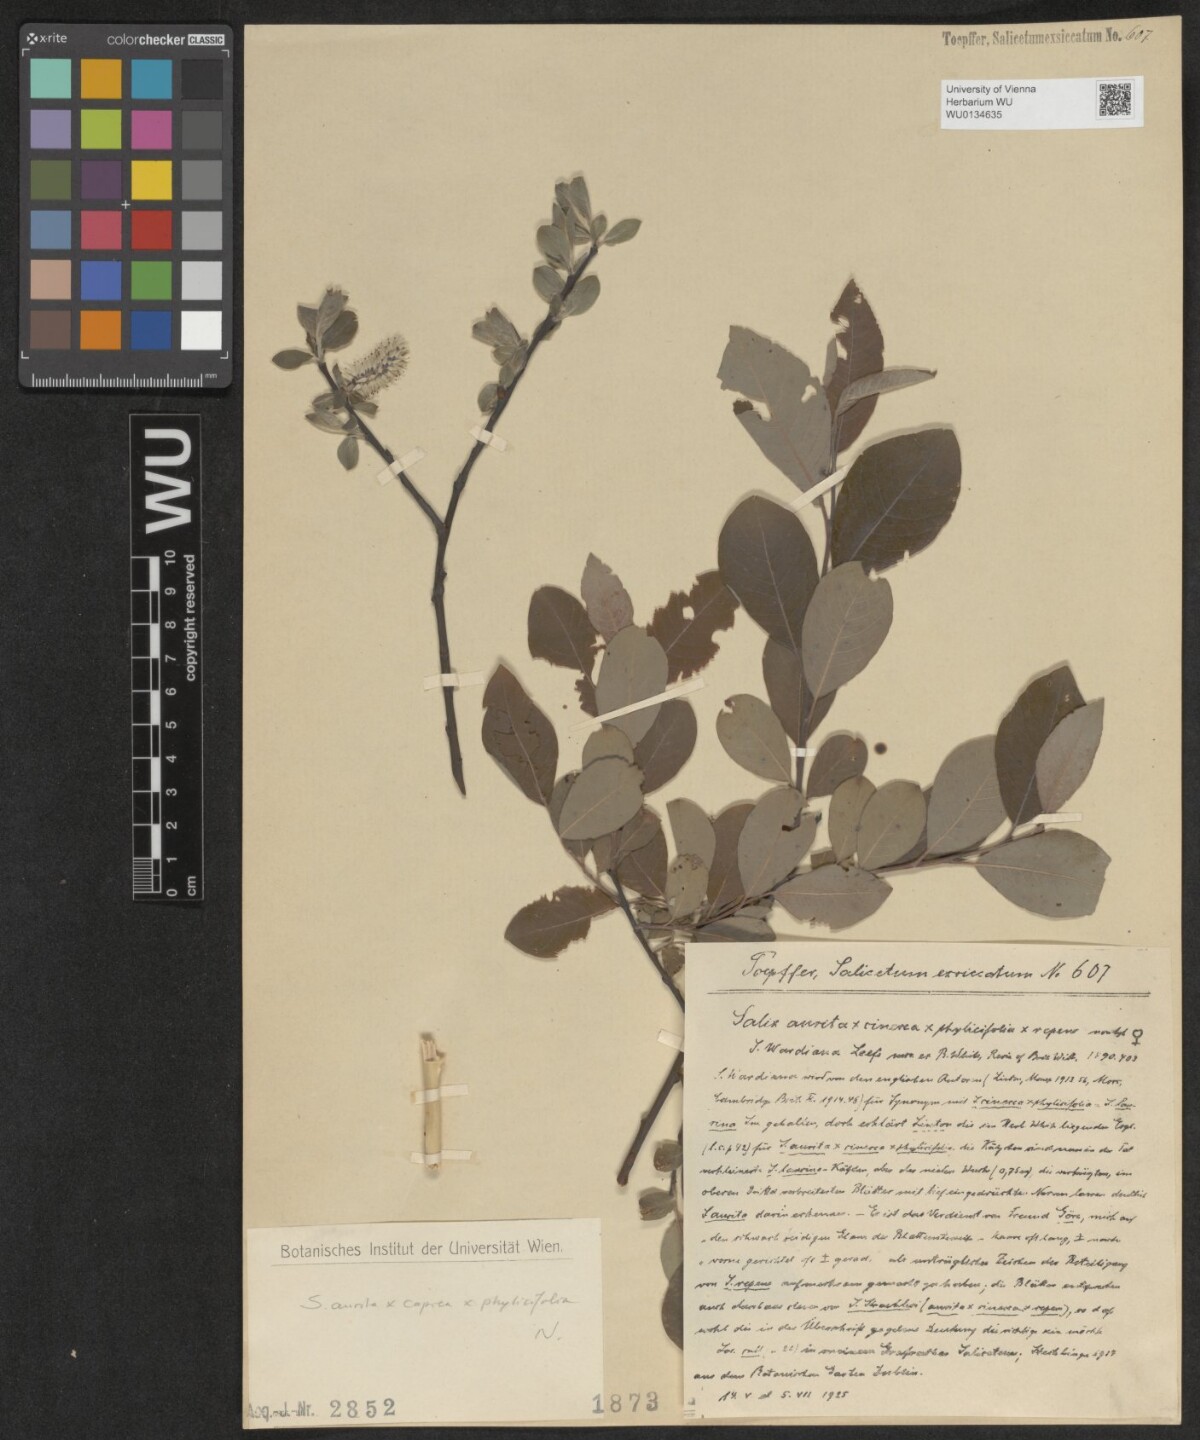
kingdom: Plantae
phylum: Tracheophyta
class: Magnoliopsida
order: Malpighiales
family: Salicaceae
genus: Salix
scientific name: Salix
